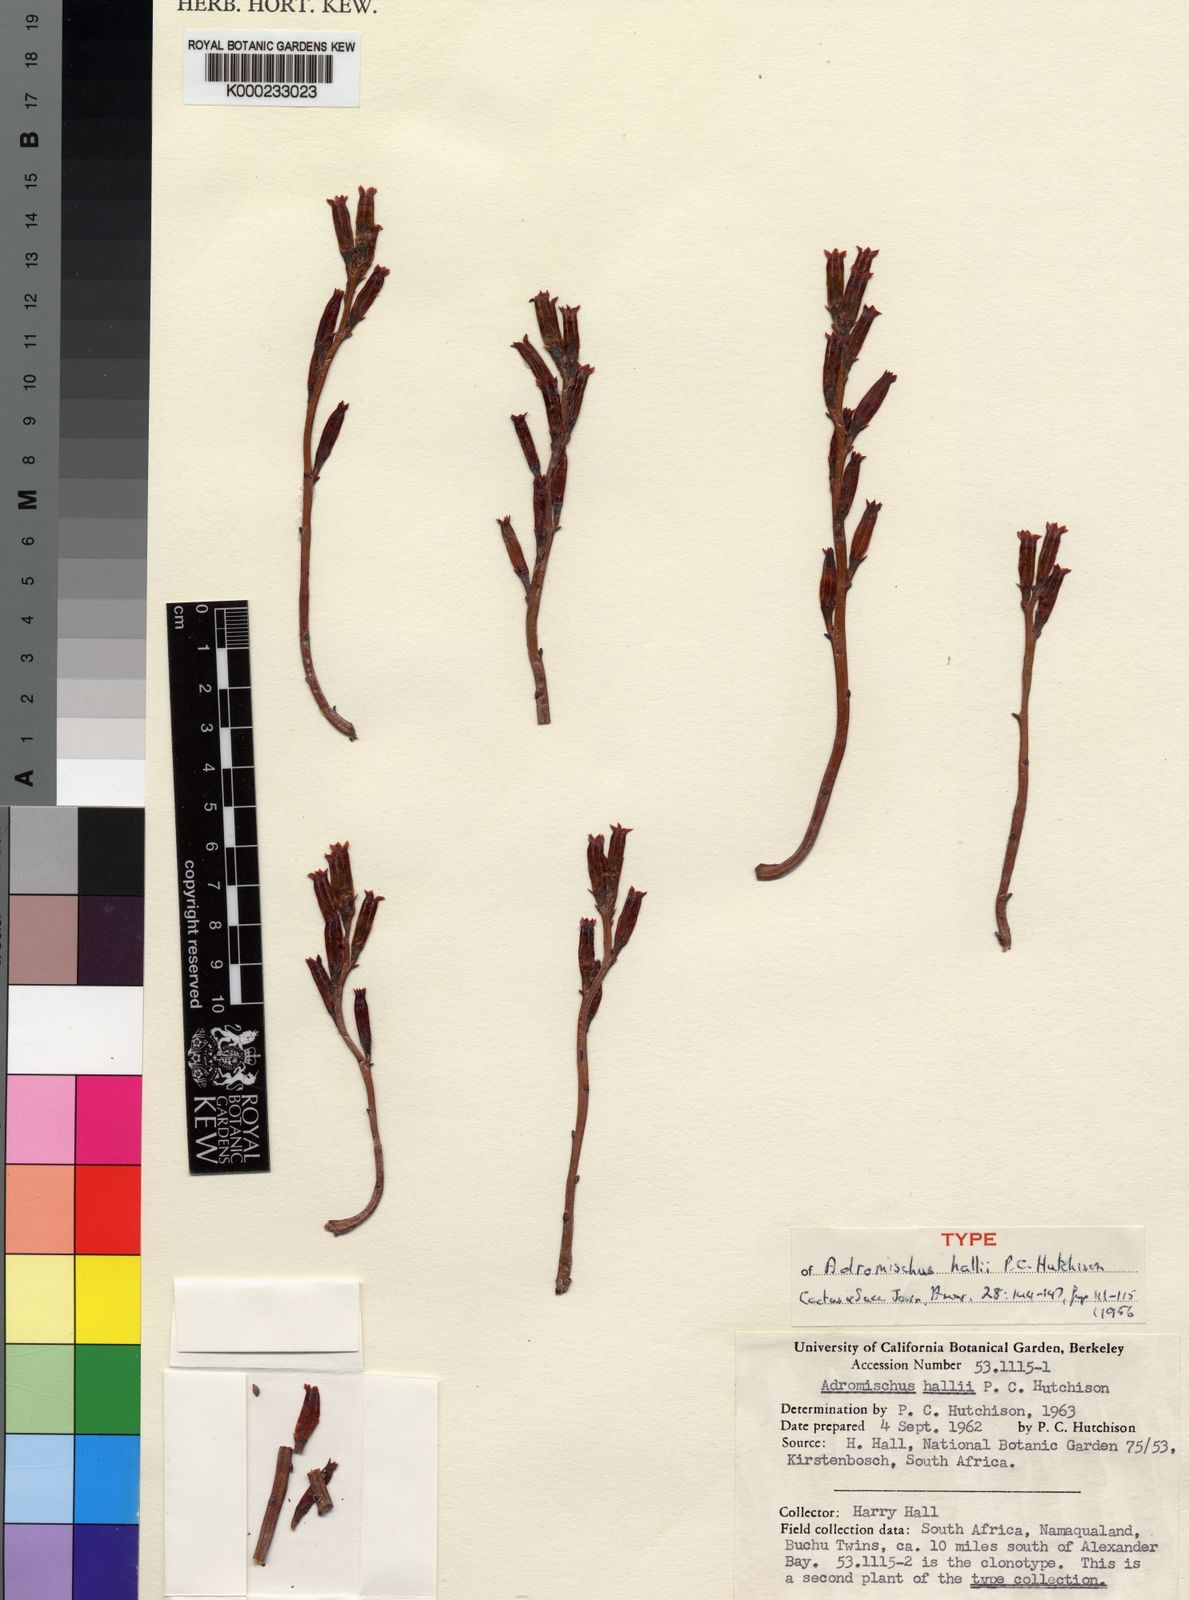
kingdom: Plantae
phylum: Tracheophyta
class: Magnoliopsida
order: Saxifragales
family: Crassulaceae
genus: Adromischus
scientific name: Adromischus marianiae
